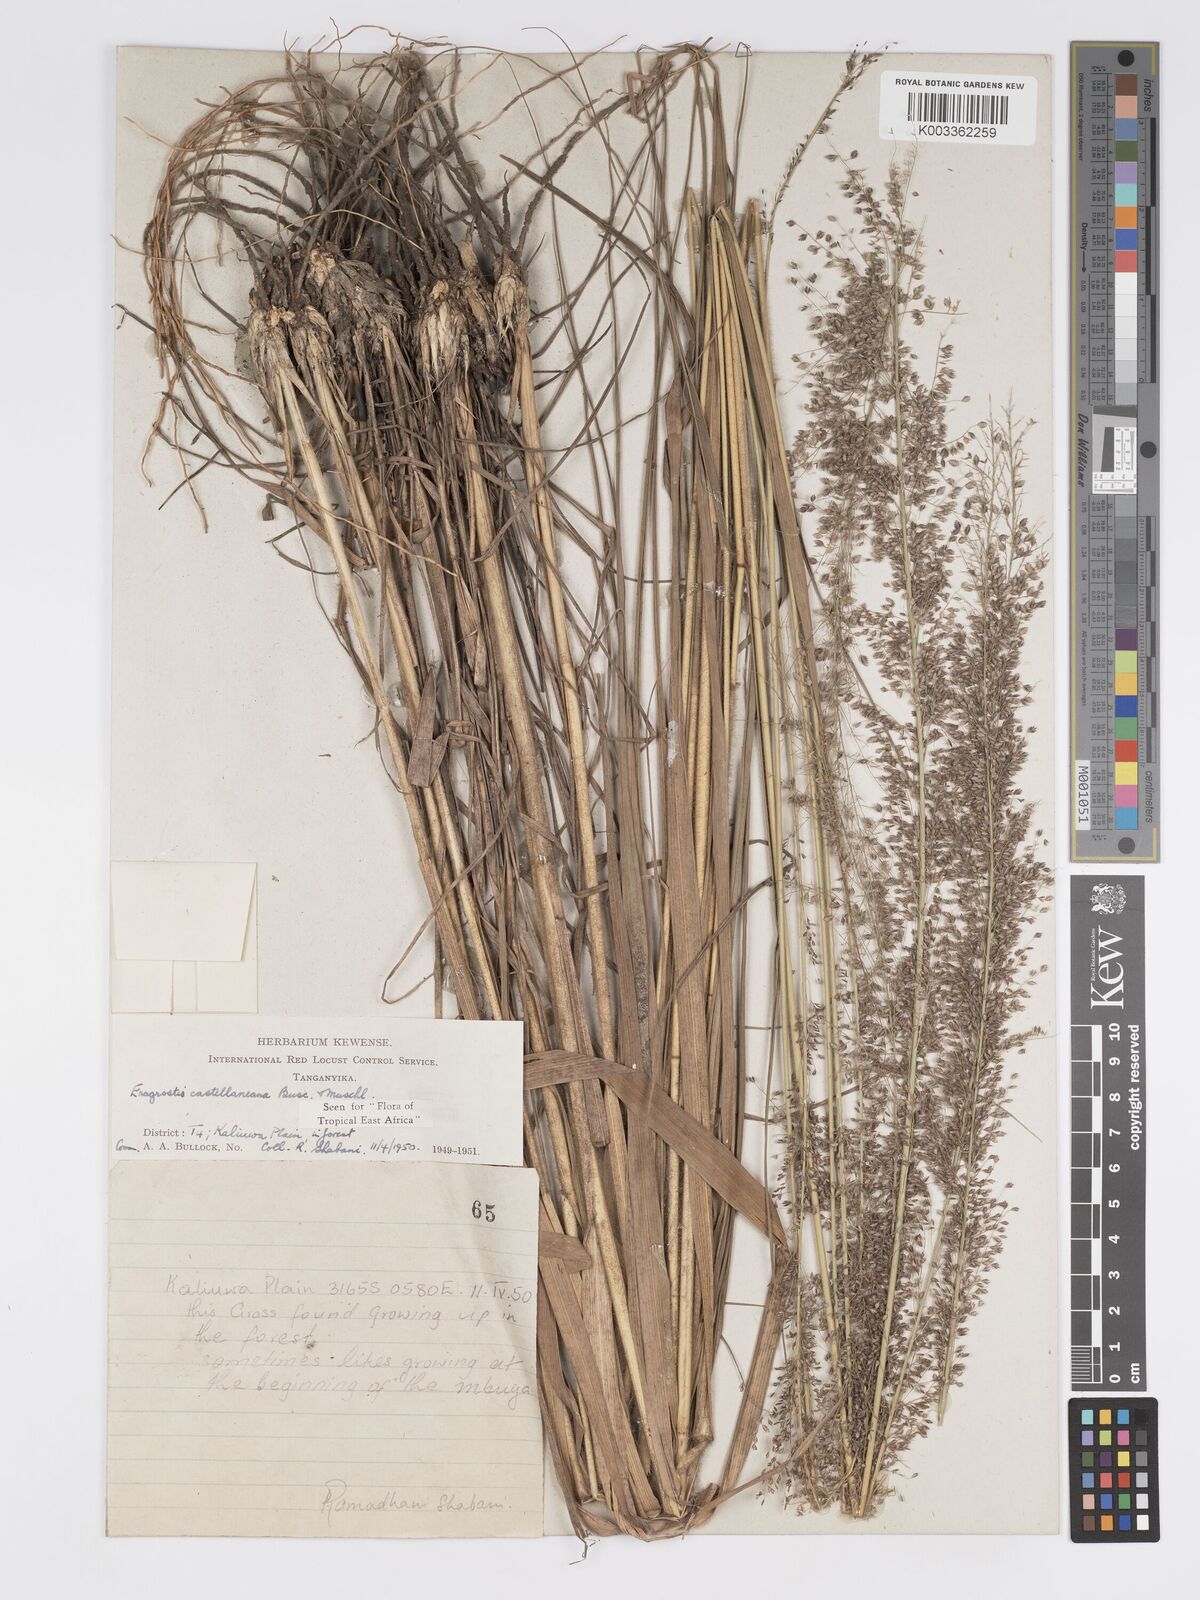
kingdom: Plantae
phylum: Tracheophyta
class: Liliopsida
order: Poales
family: Poaceae
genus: Eragrostis
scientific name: Eragrostis castellaneana
